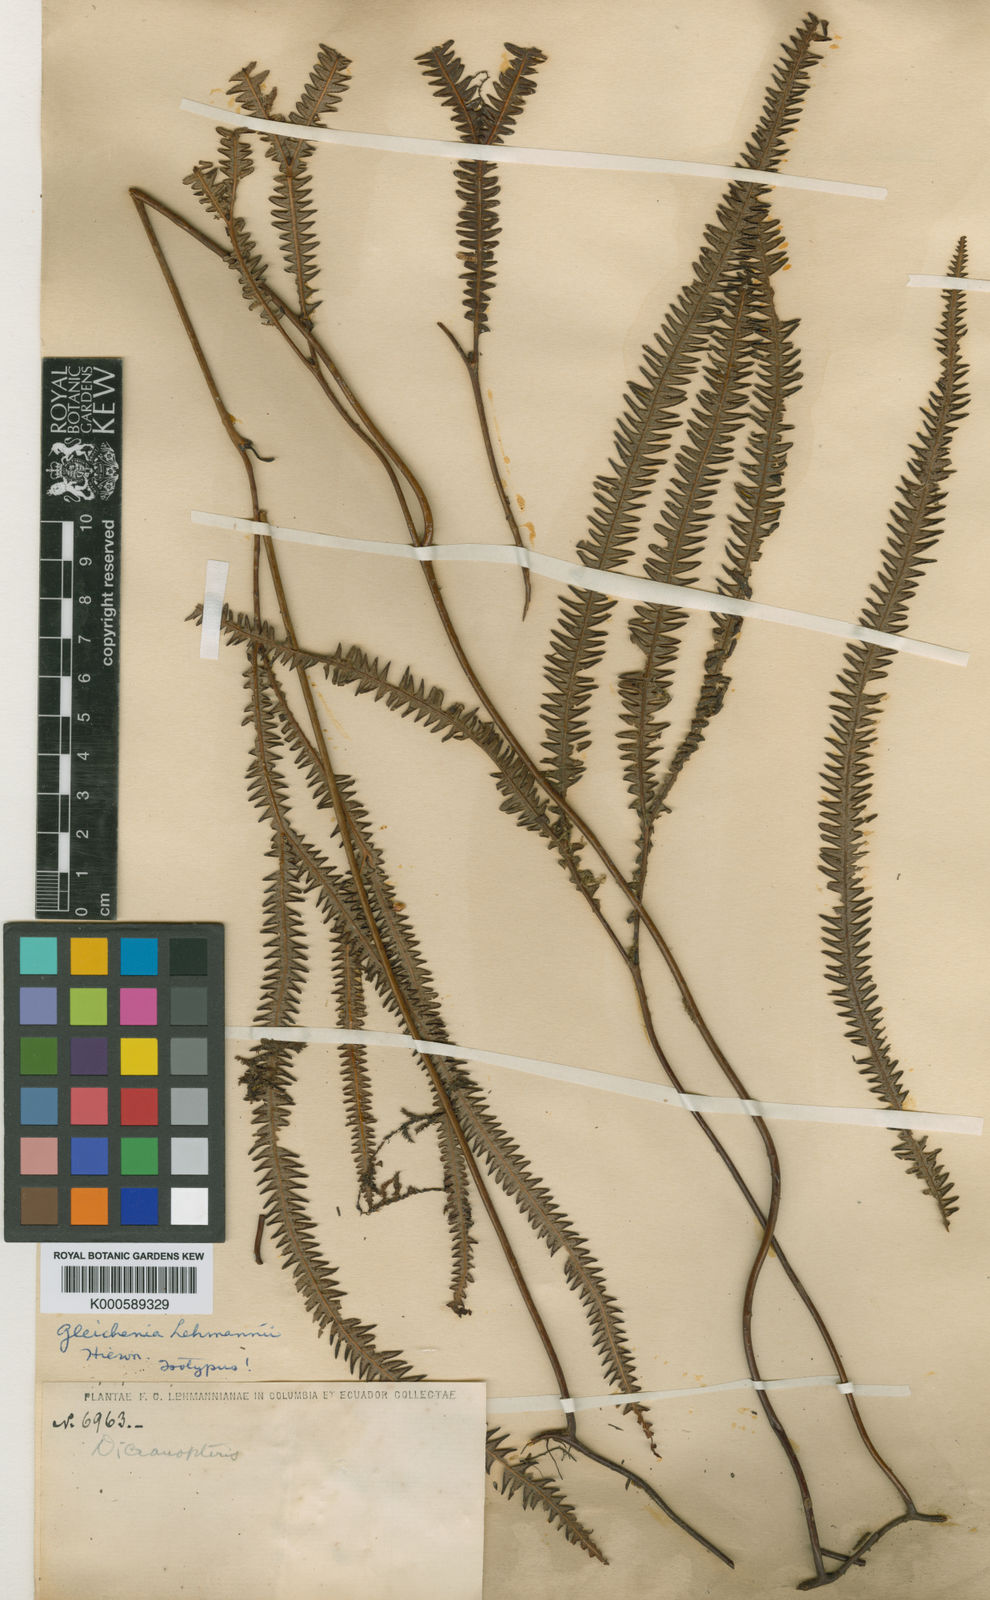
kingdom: Plantae
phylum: Tracheophyta
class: Polypodiopsida
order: Gleicheniales
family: Gleicheniaceae
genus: Sticherus
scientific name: Sticherus hypoleucus
